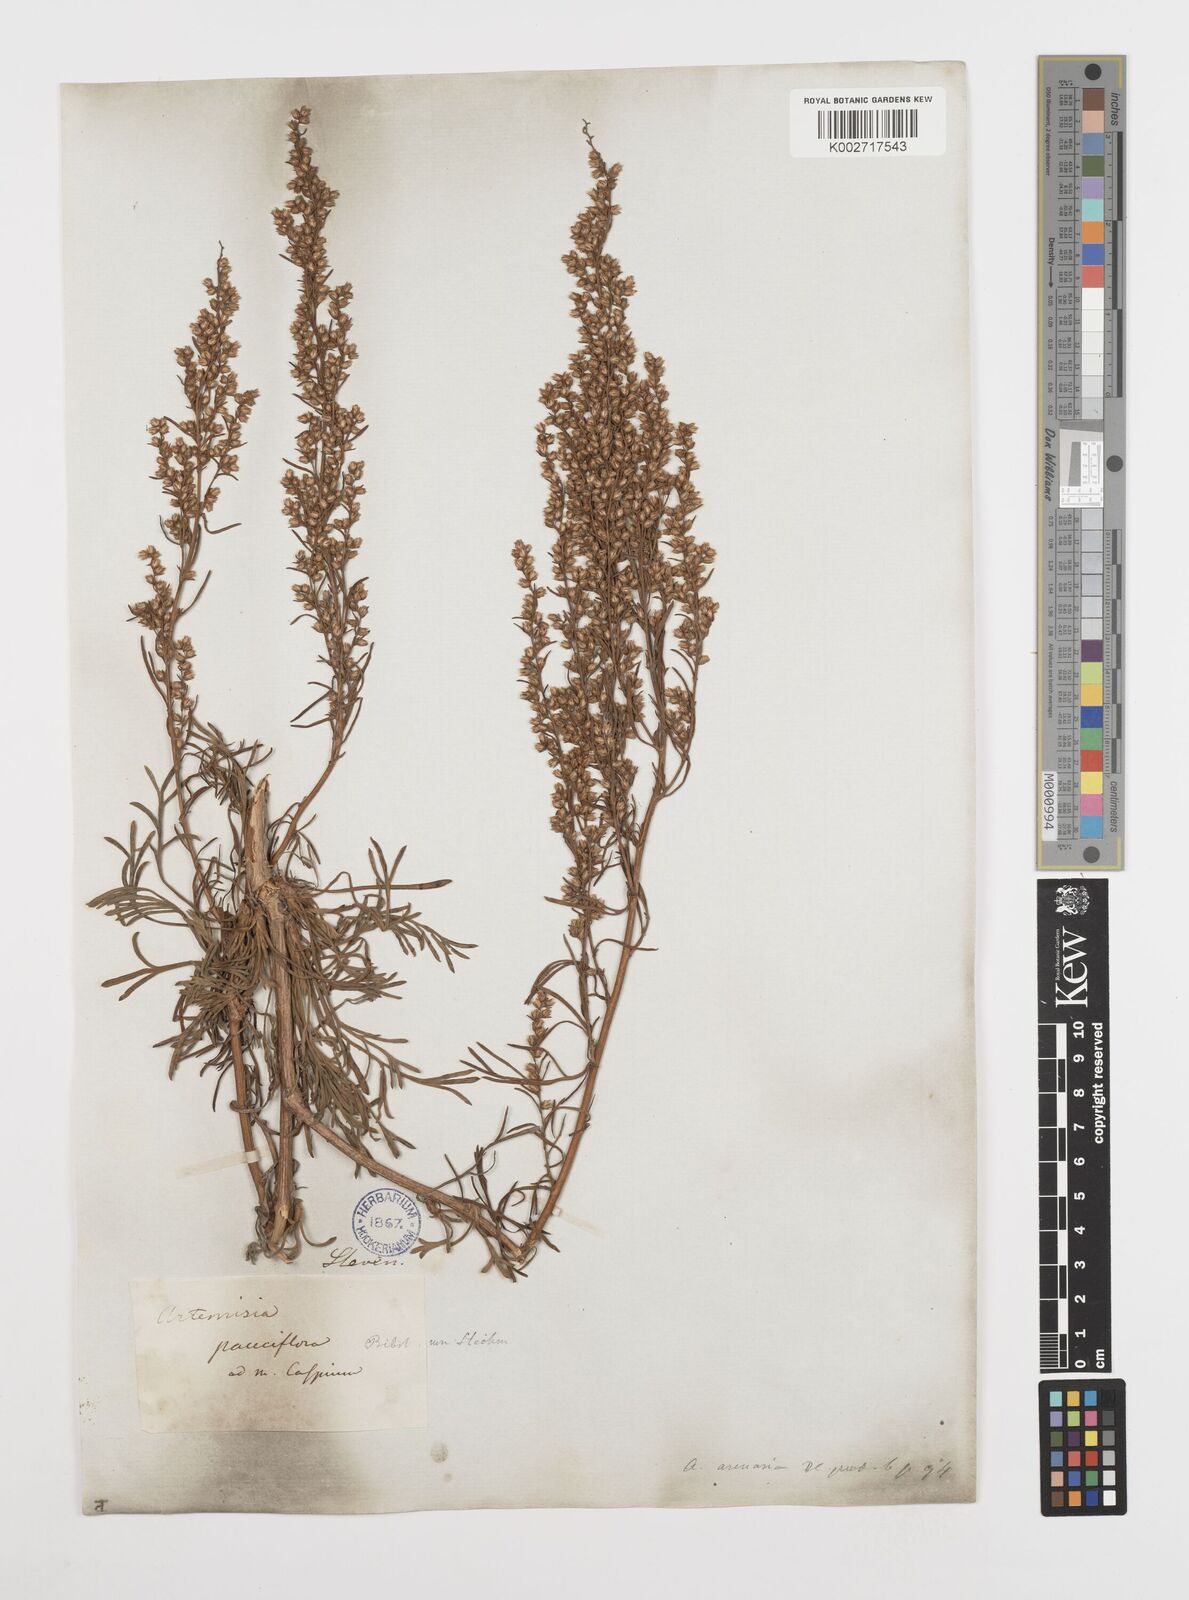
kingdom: Plantae
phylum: Tracheophyta
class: Magnoliopsida
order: Asterales
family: Asteraceae
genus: Artemisia
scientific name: Artemisia
